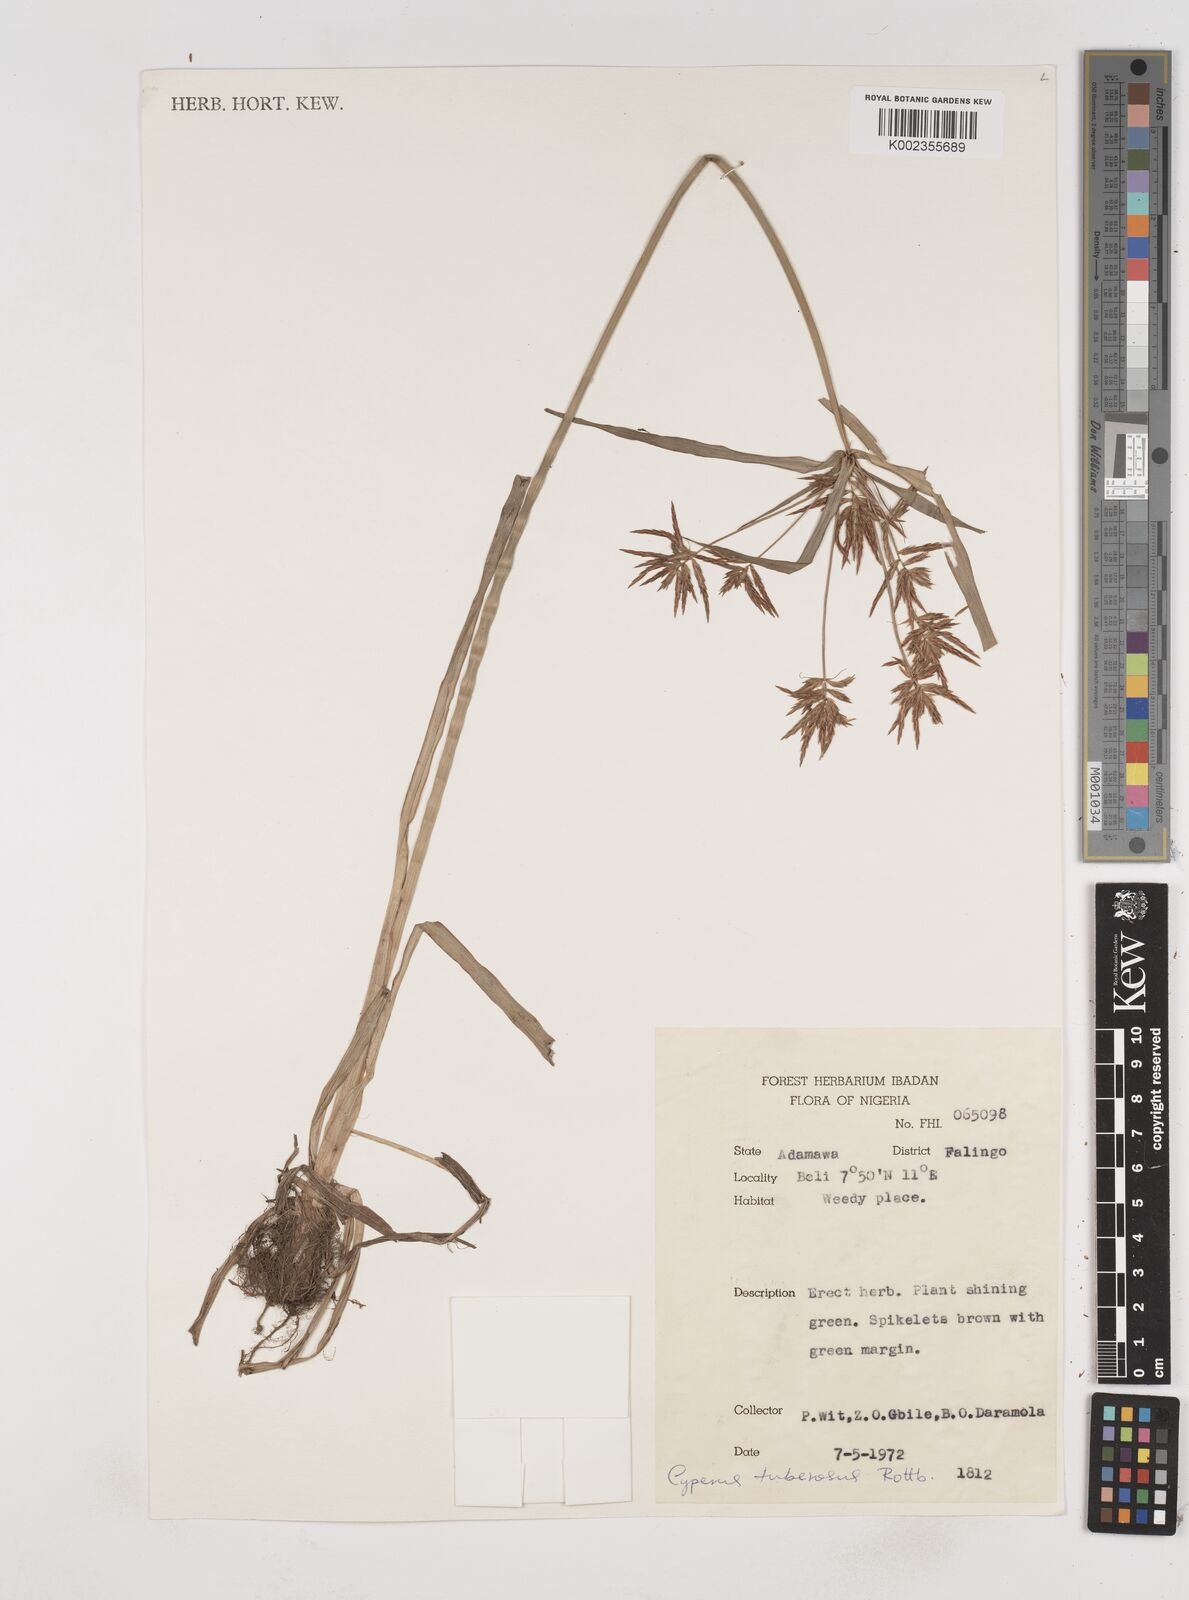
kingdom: Plantae
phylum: Tracheophyta
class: Liliopsida
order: Poales
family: Cyperaceae
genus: Cyperus
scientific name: Cyperus tuberosus
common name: Nut grass
